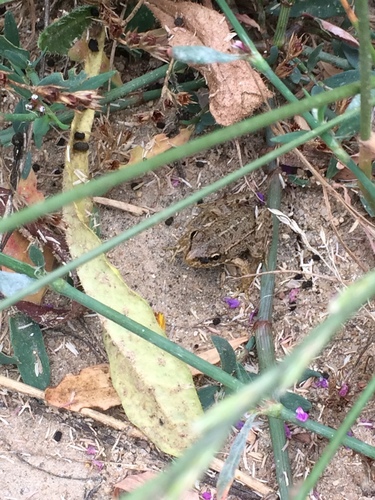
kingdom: Animalia
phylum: Chordata
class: Amphibia
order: Anura
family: Ranidae
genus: Pelophylax
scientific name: Pelophylax perezi
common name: Perez's frog
